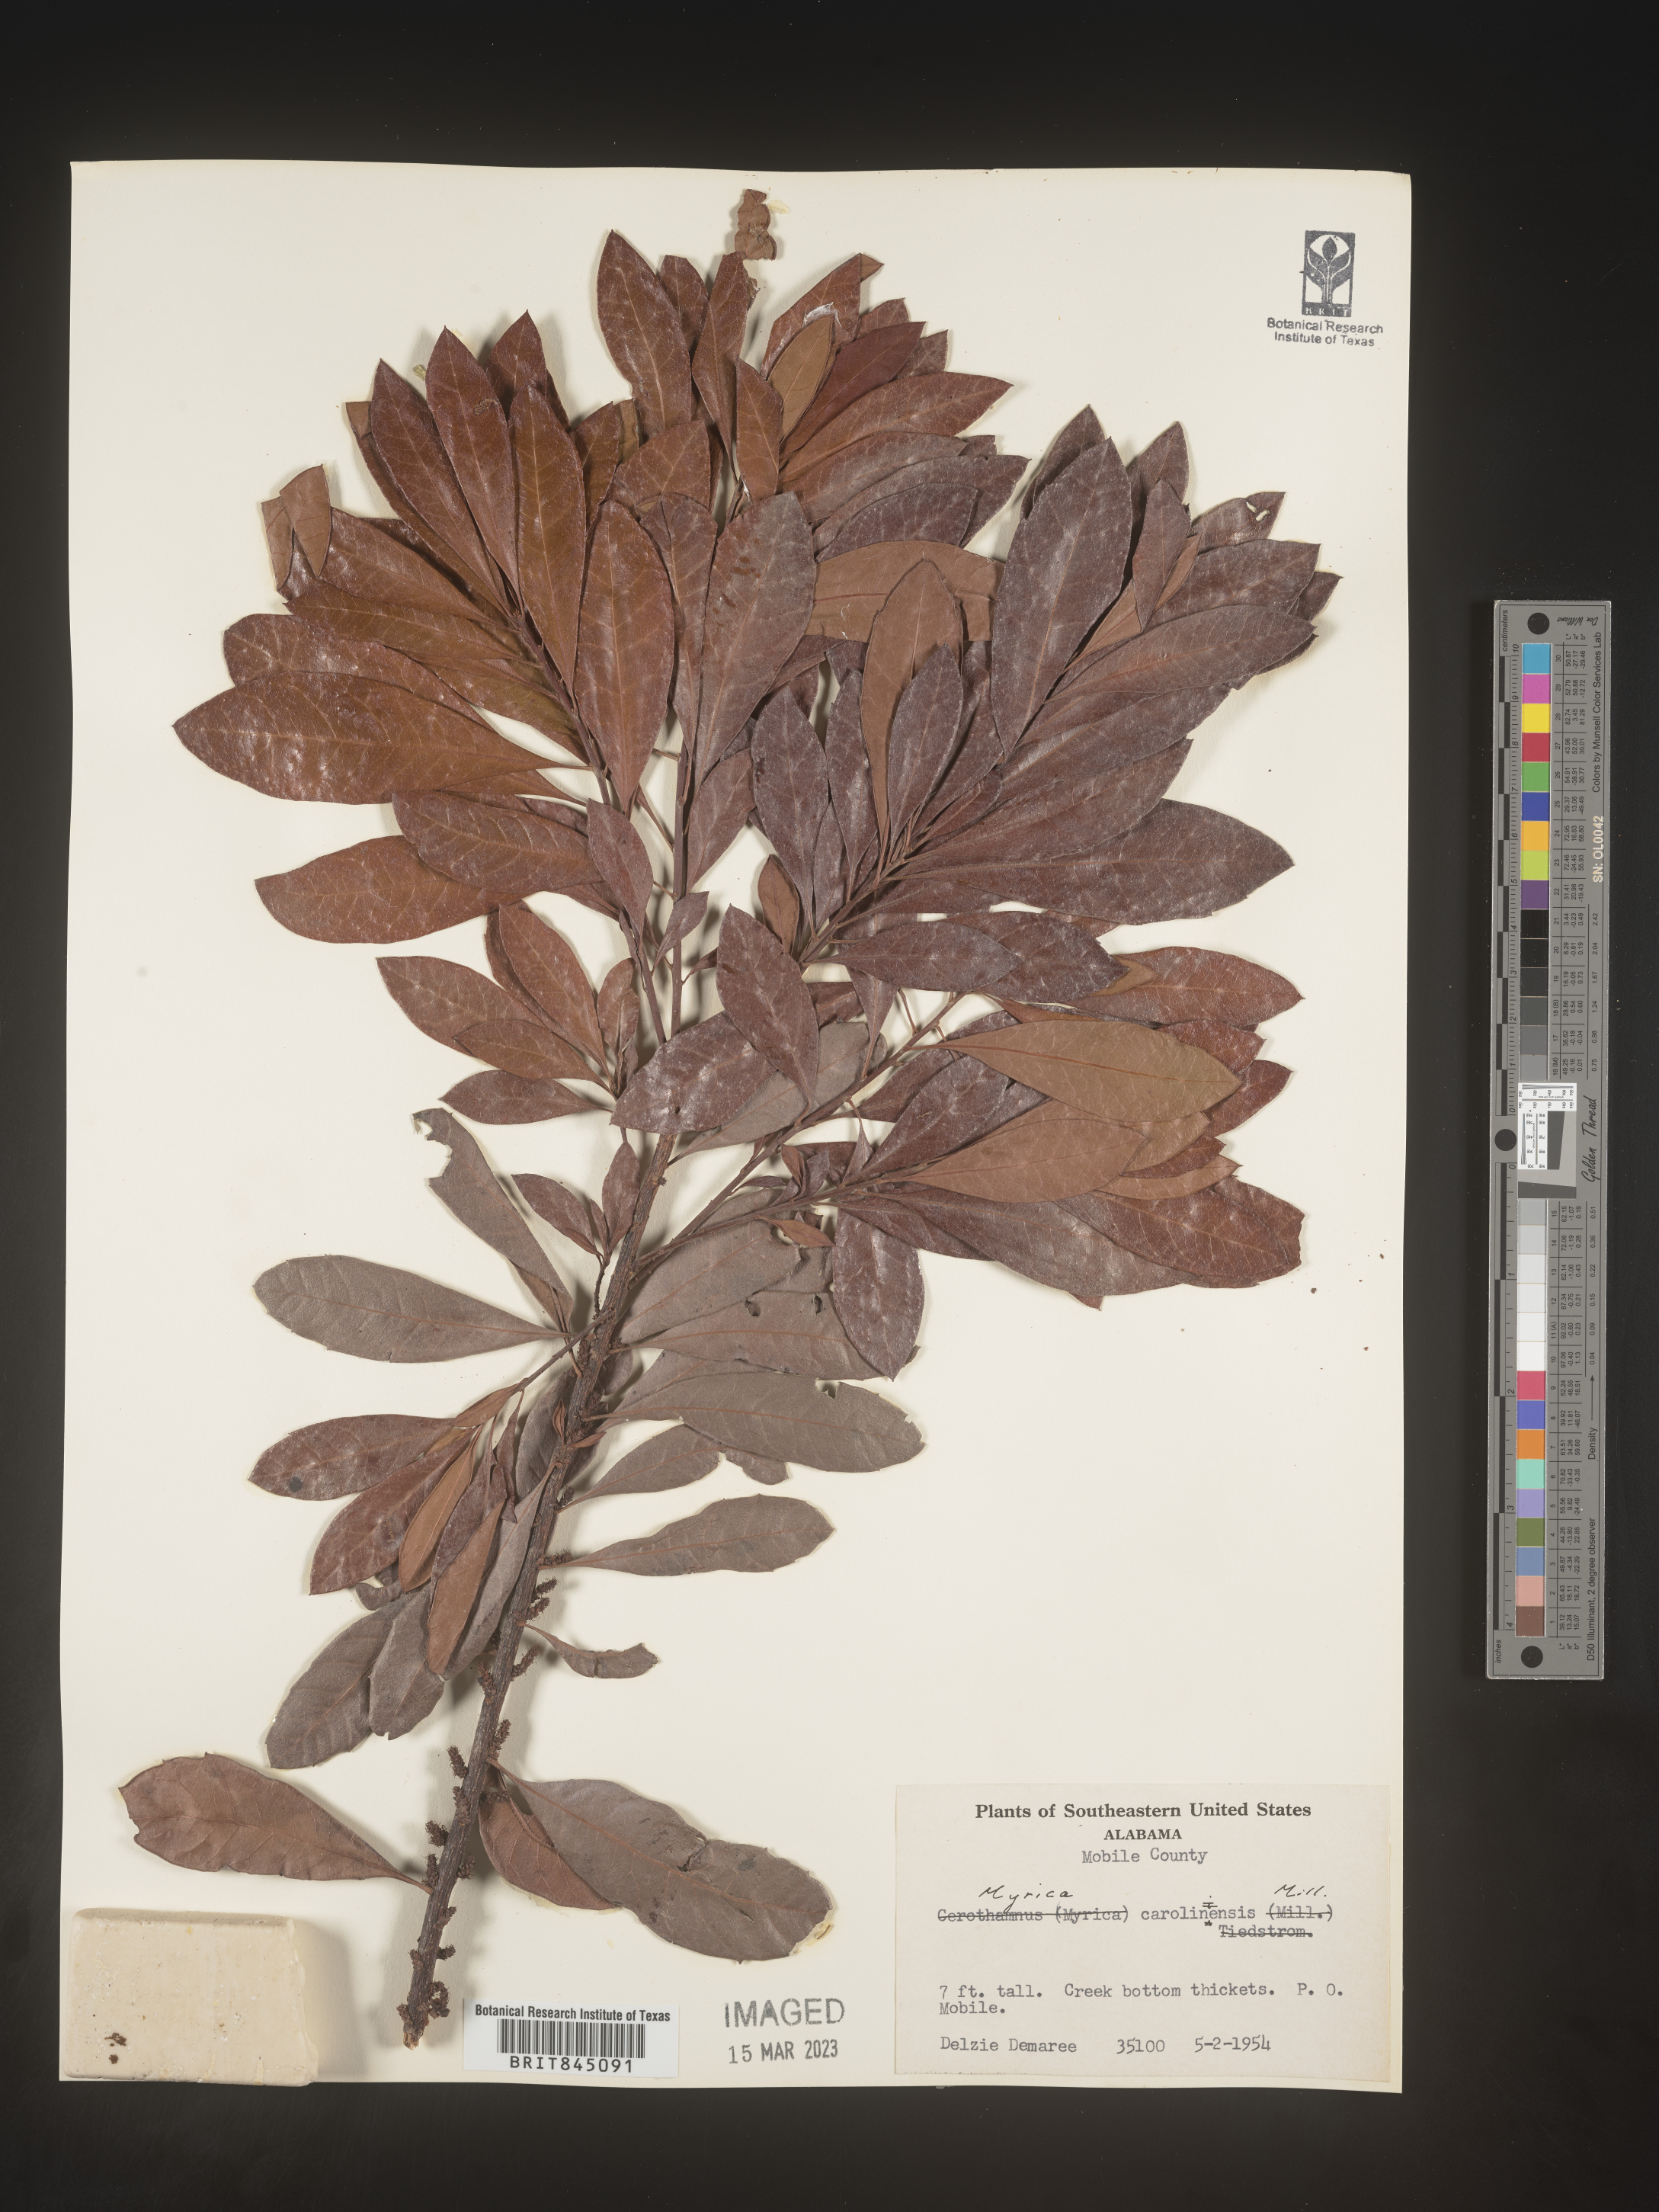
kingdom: Plantae
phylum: Tracheophyta
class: Magnoliopsida
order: Fagales
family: Myricaceae
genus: Morella
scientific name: Morella caroliniensis
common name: Evergreen bayberry
